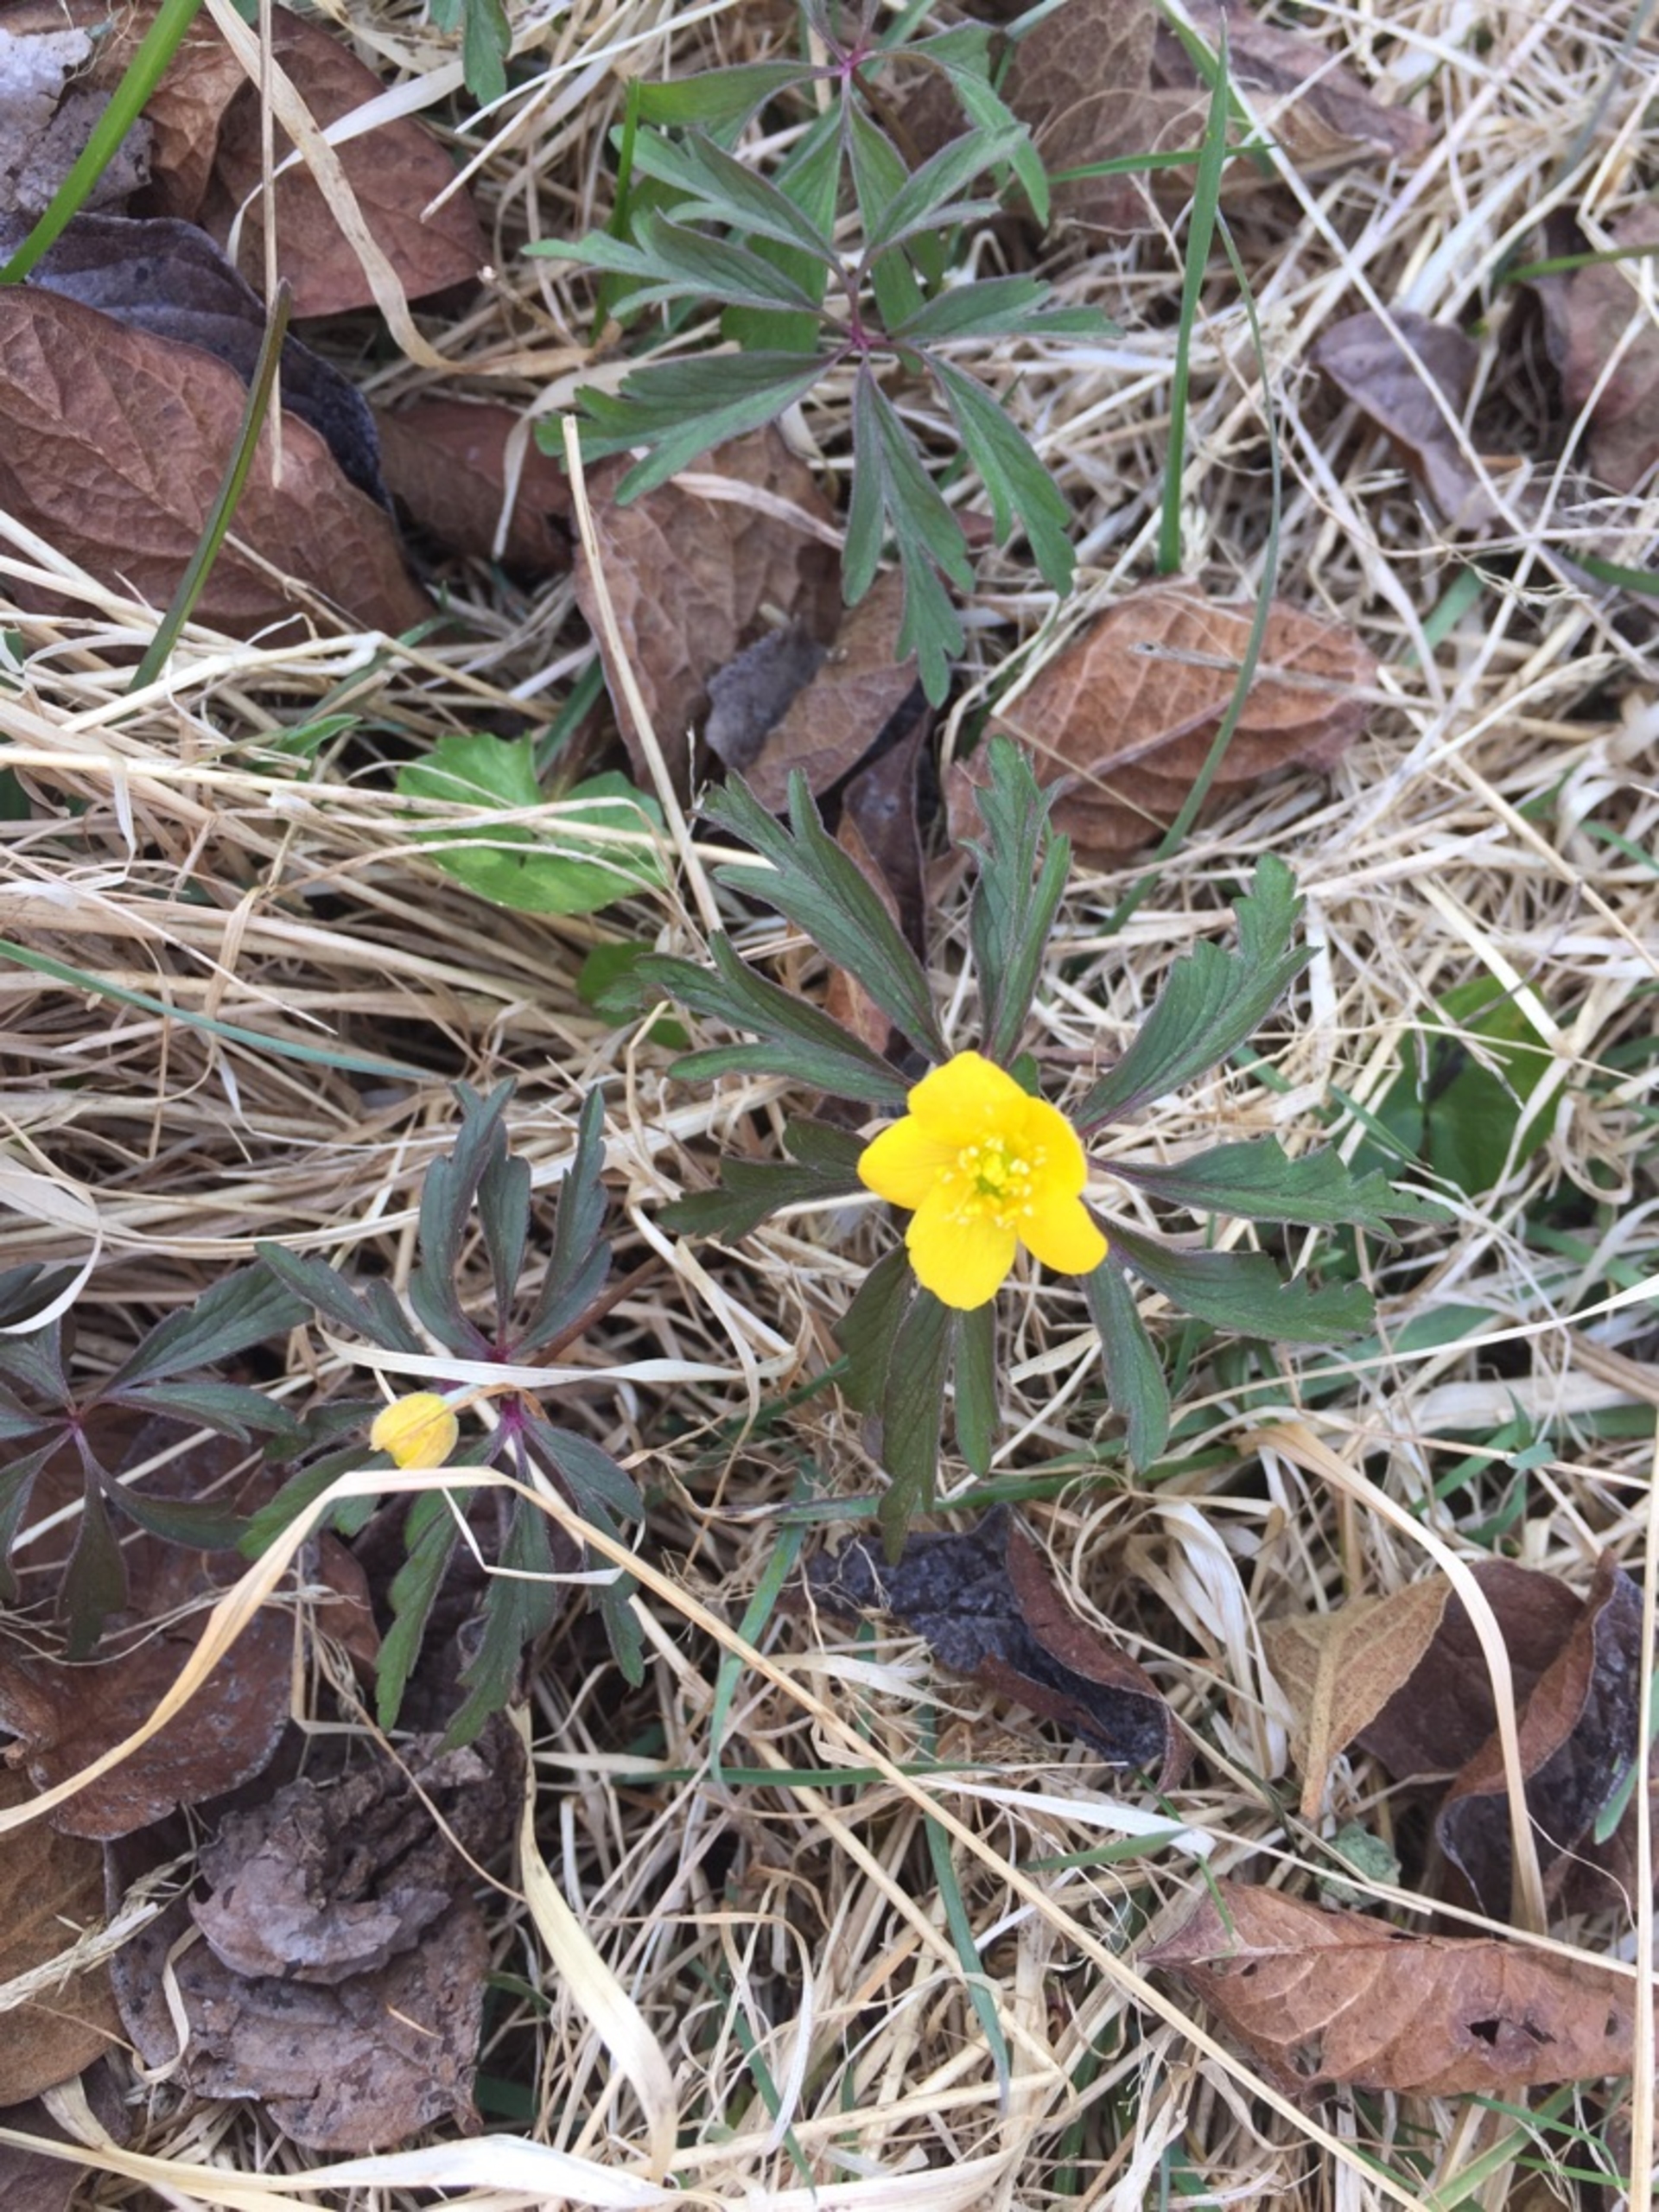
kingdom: Plantae
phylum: Tracheophyta
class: Magnoliopsida
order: Ranunculales
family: Ranunculaceae
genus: Anemone
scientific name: Anemone ranunculoides
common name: Gul anemone
